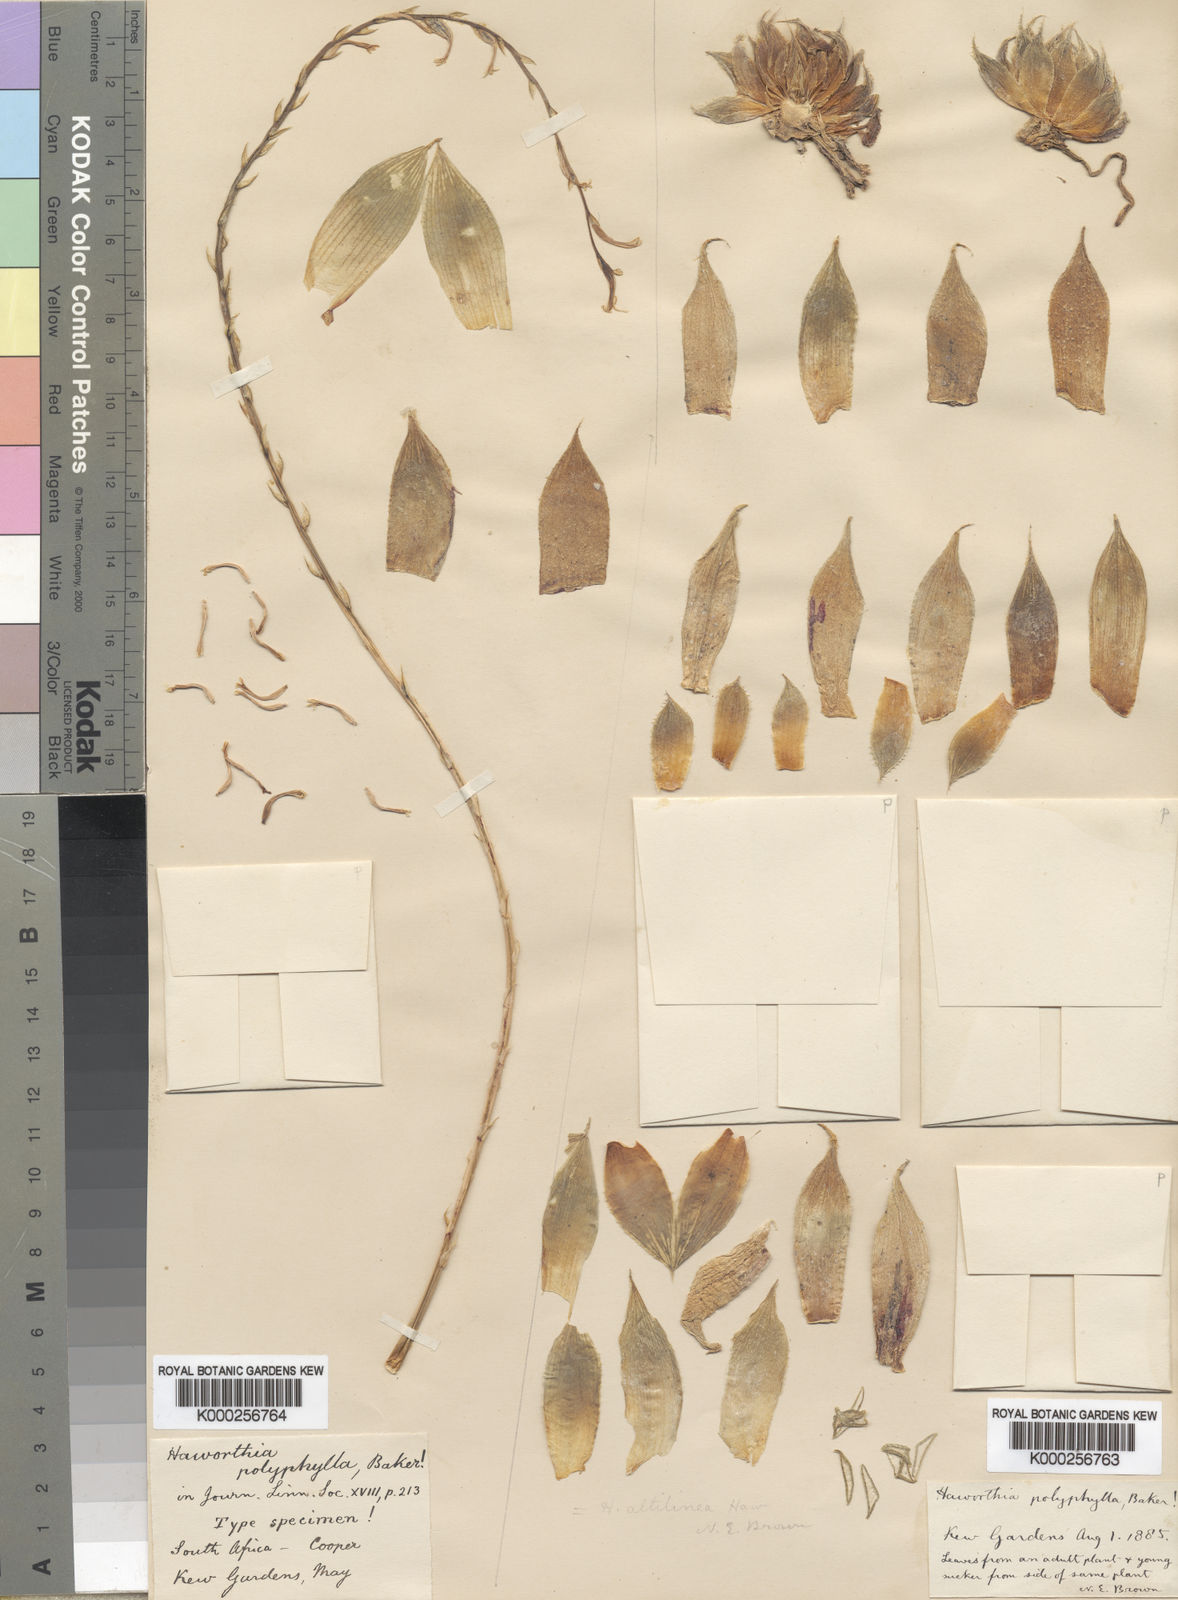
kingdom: Plantae
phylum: Tracheophyta
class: Liliopsida
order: Asparagales
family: Asphodelaceae
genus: Haworthia
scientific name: Haworthia mucronata
